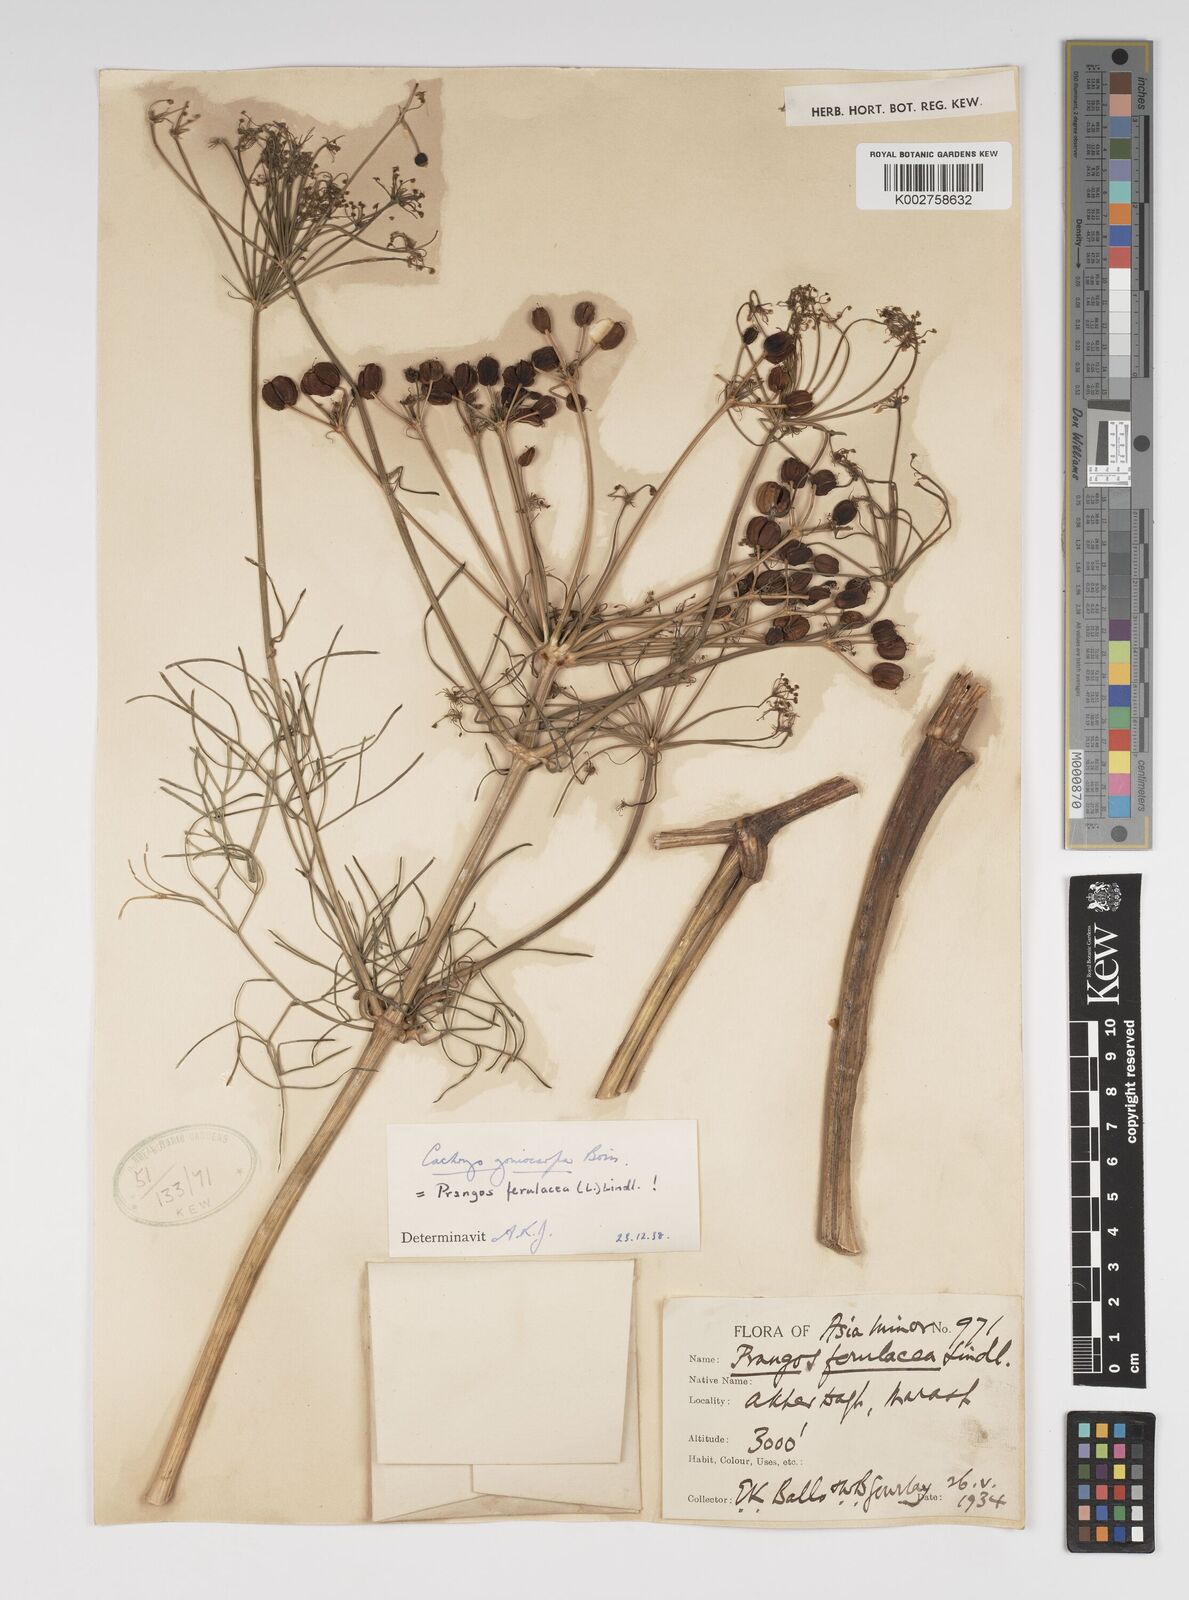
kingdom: Plantae
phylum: Tracheophyta
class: Magnoliopsida
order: Apiales
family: Apiaceae
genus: Prangos
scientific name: Prangos ferulacea
